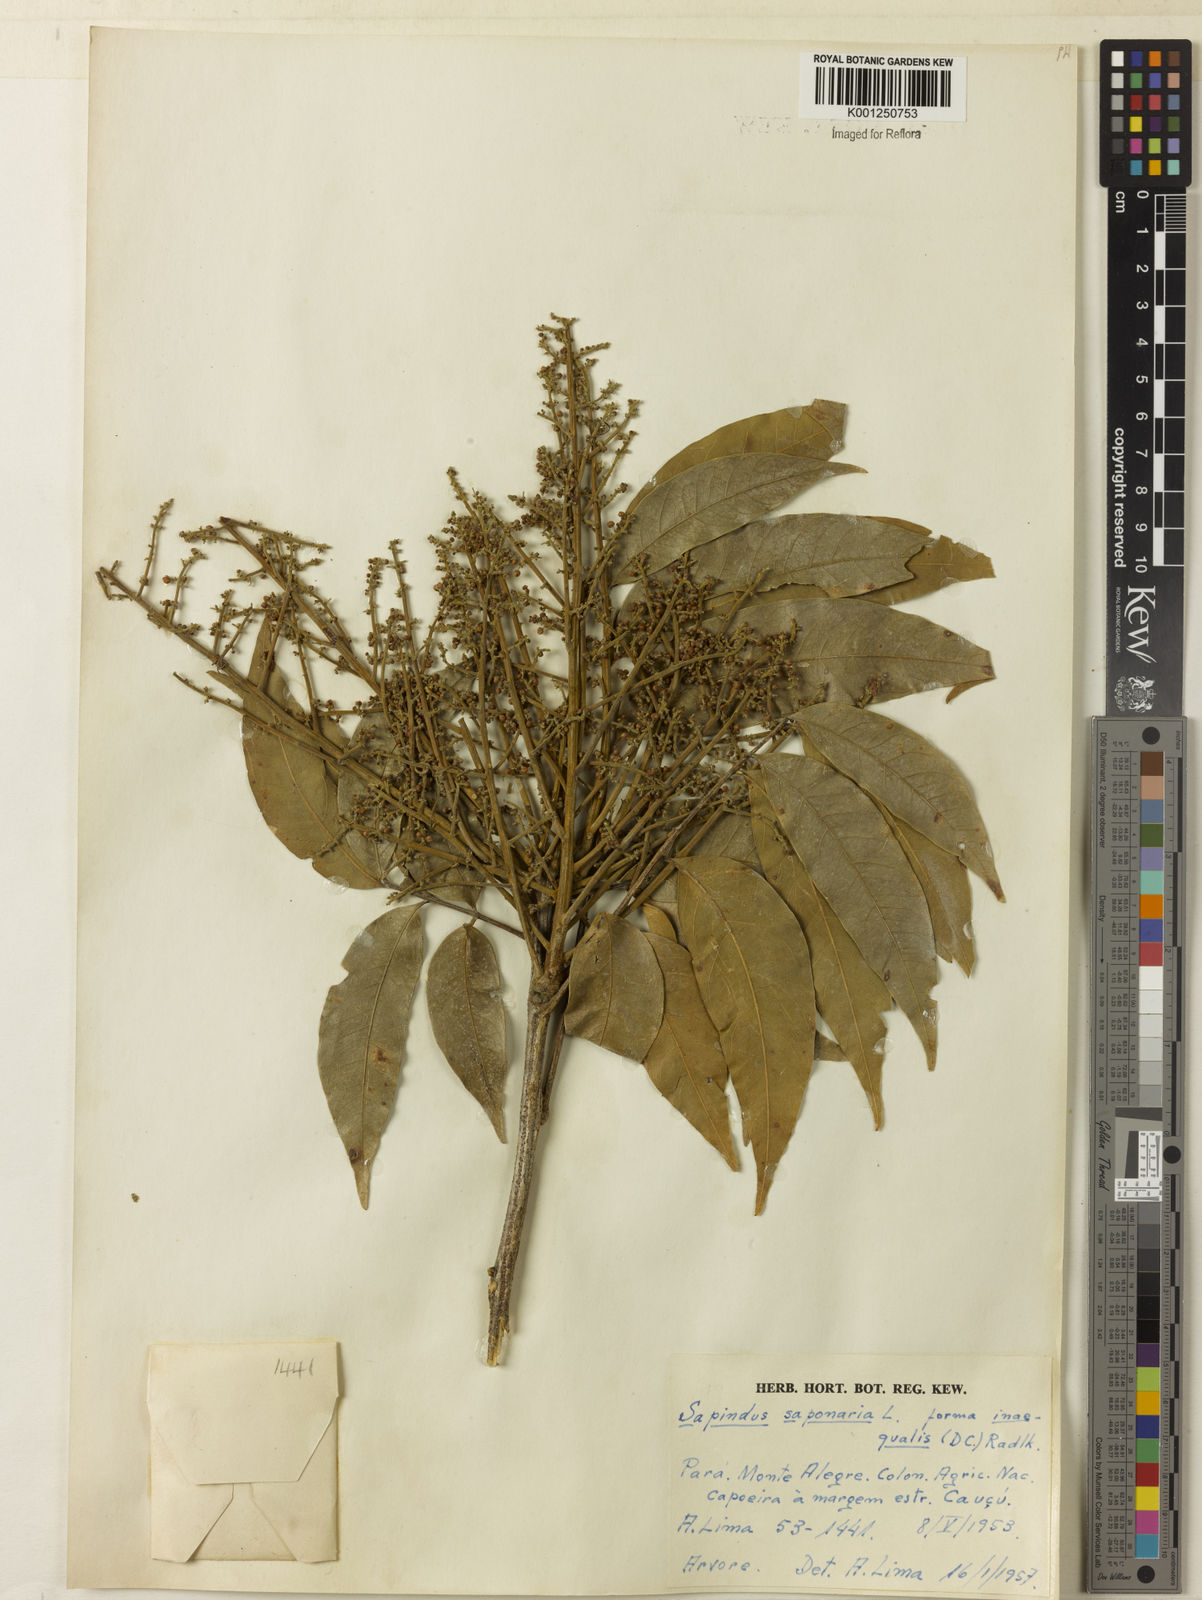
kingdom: Plantae
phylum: Tracheophyta
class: Magnoliopsida
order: Sapindales
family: Sapindaceae
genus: Sapindus
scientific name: Sapindus
